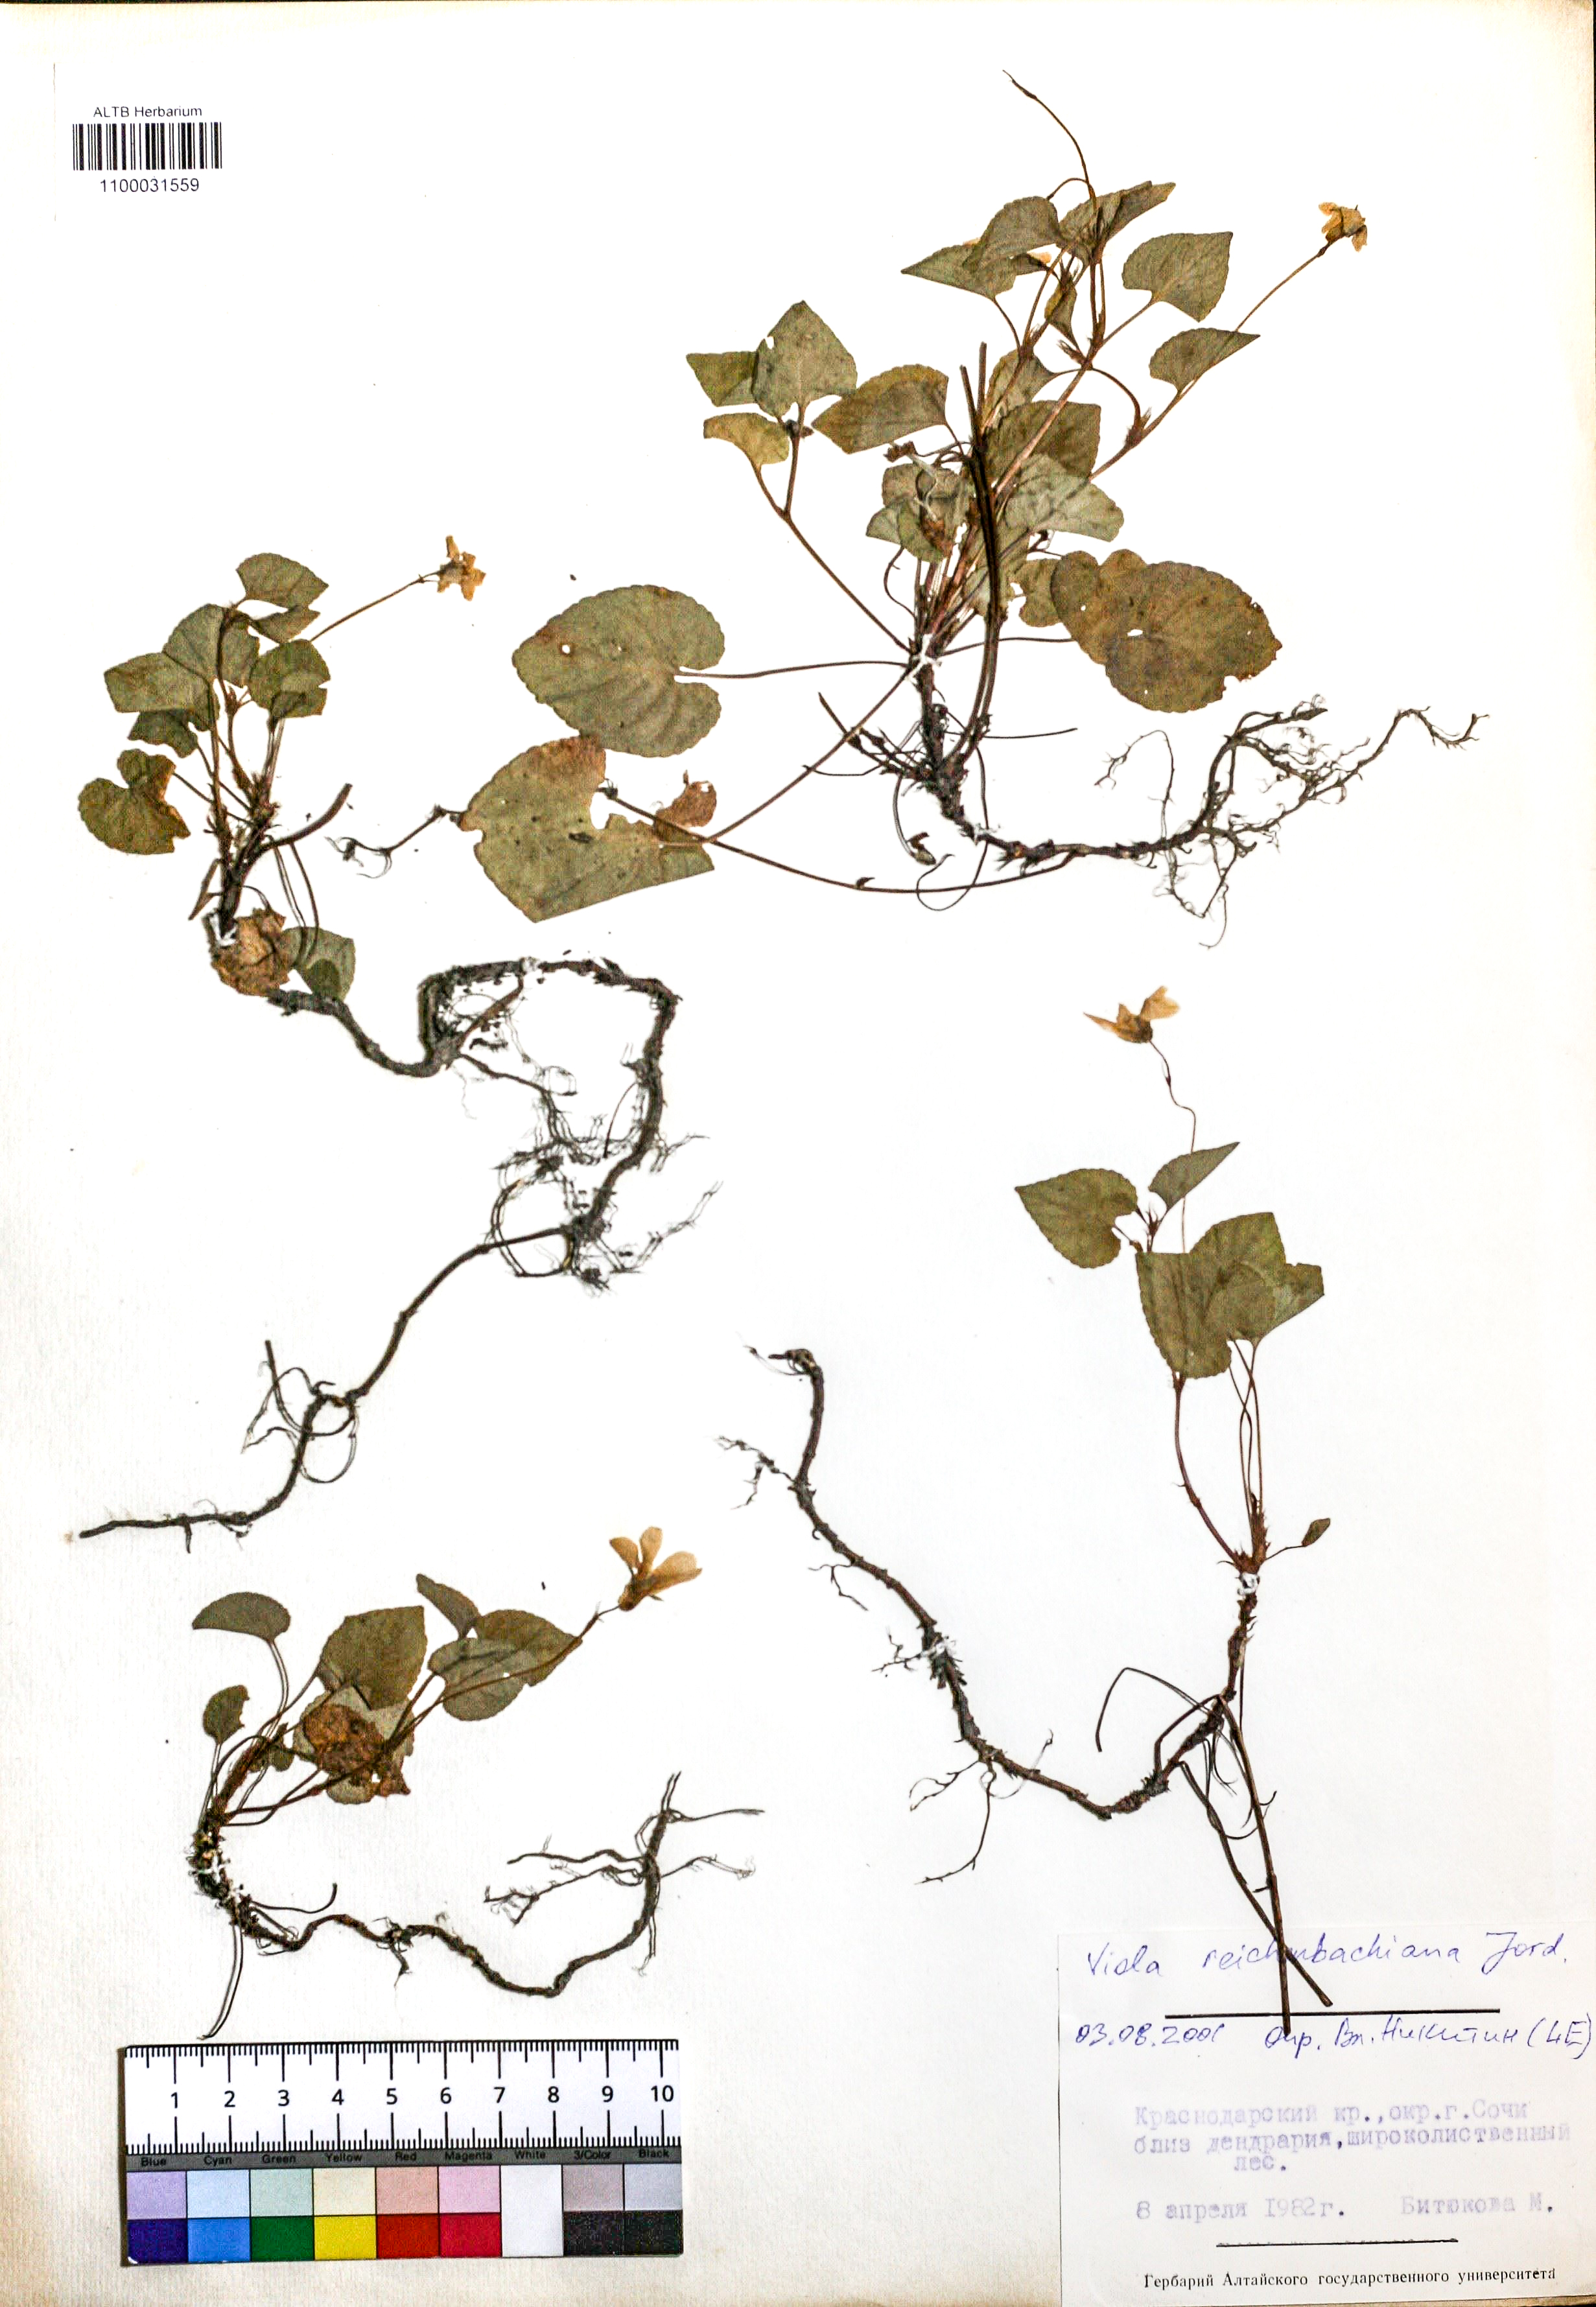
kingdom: Plantae
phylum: Tracheophyta
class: Magnoliopsida
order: Malpighiales
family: Violaceae
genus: Viola
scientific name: Viola reichenbachiana
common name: Early dog-violet
